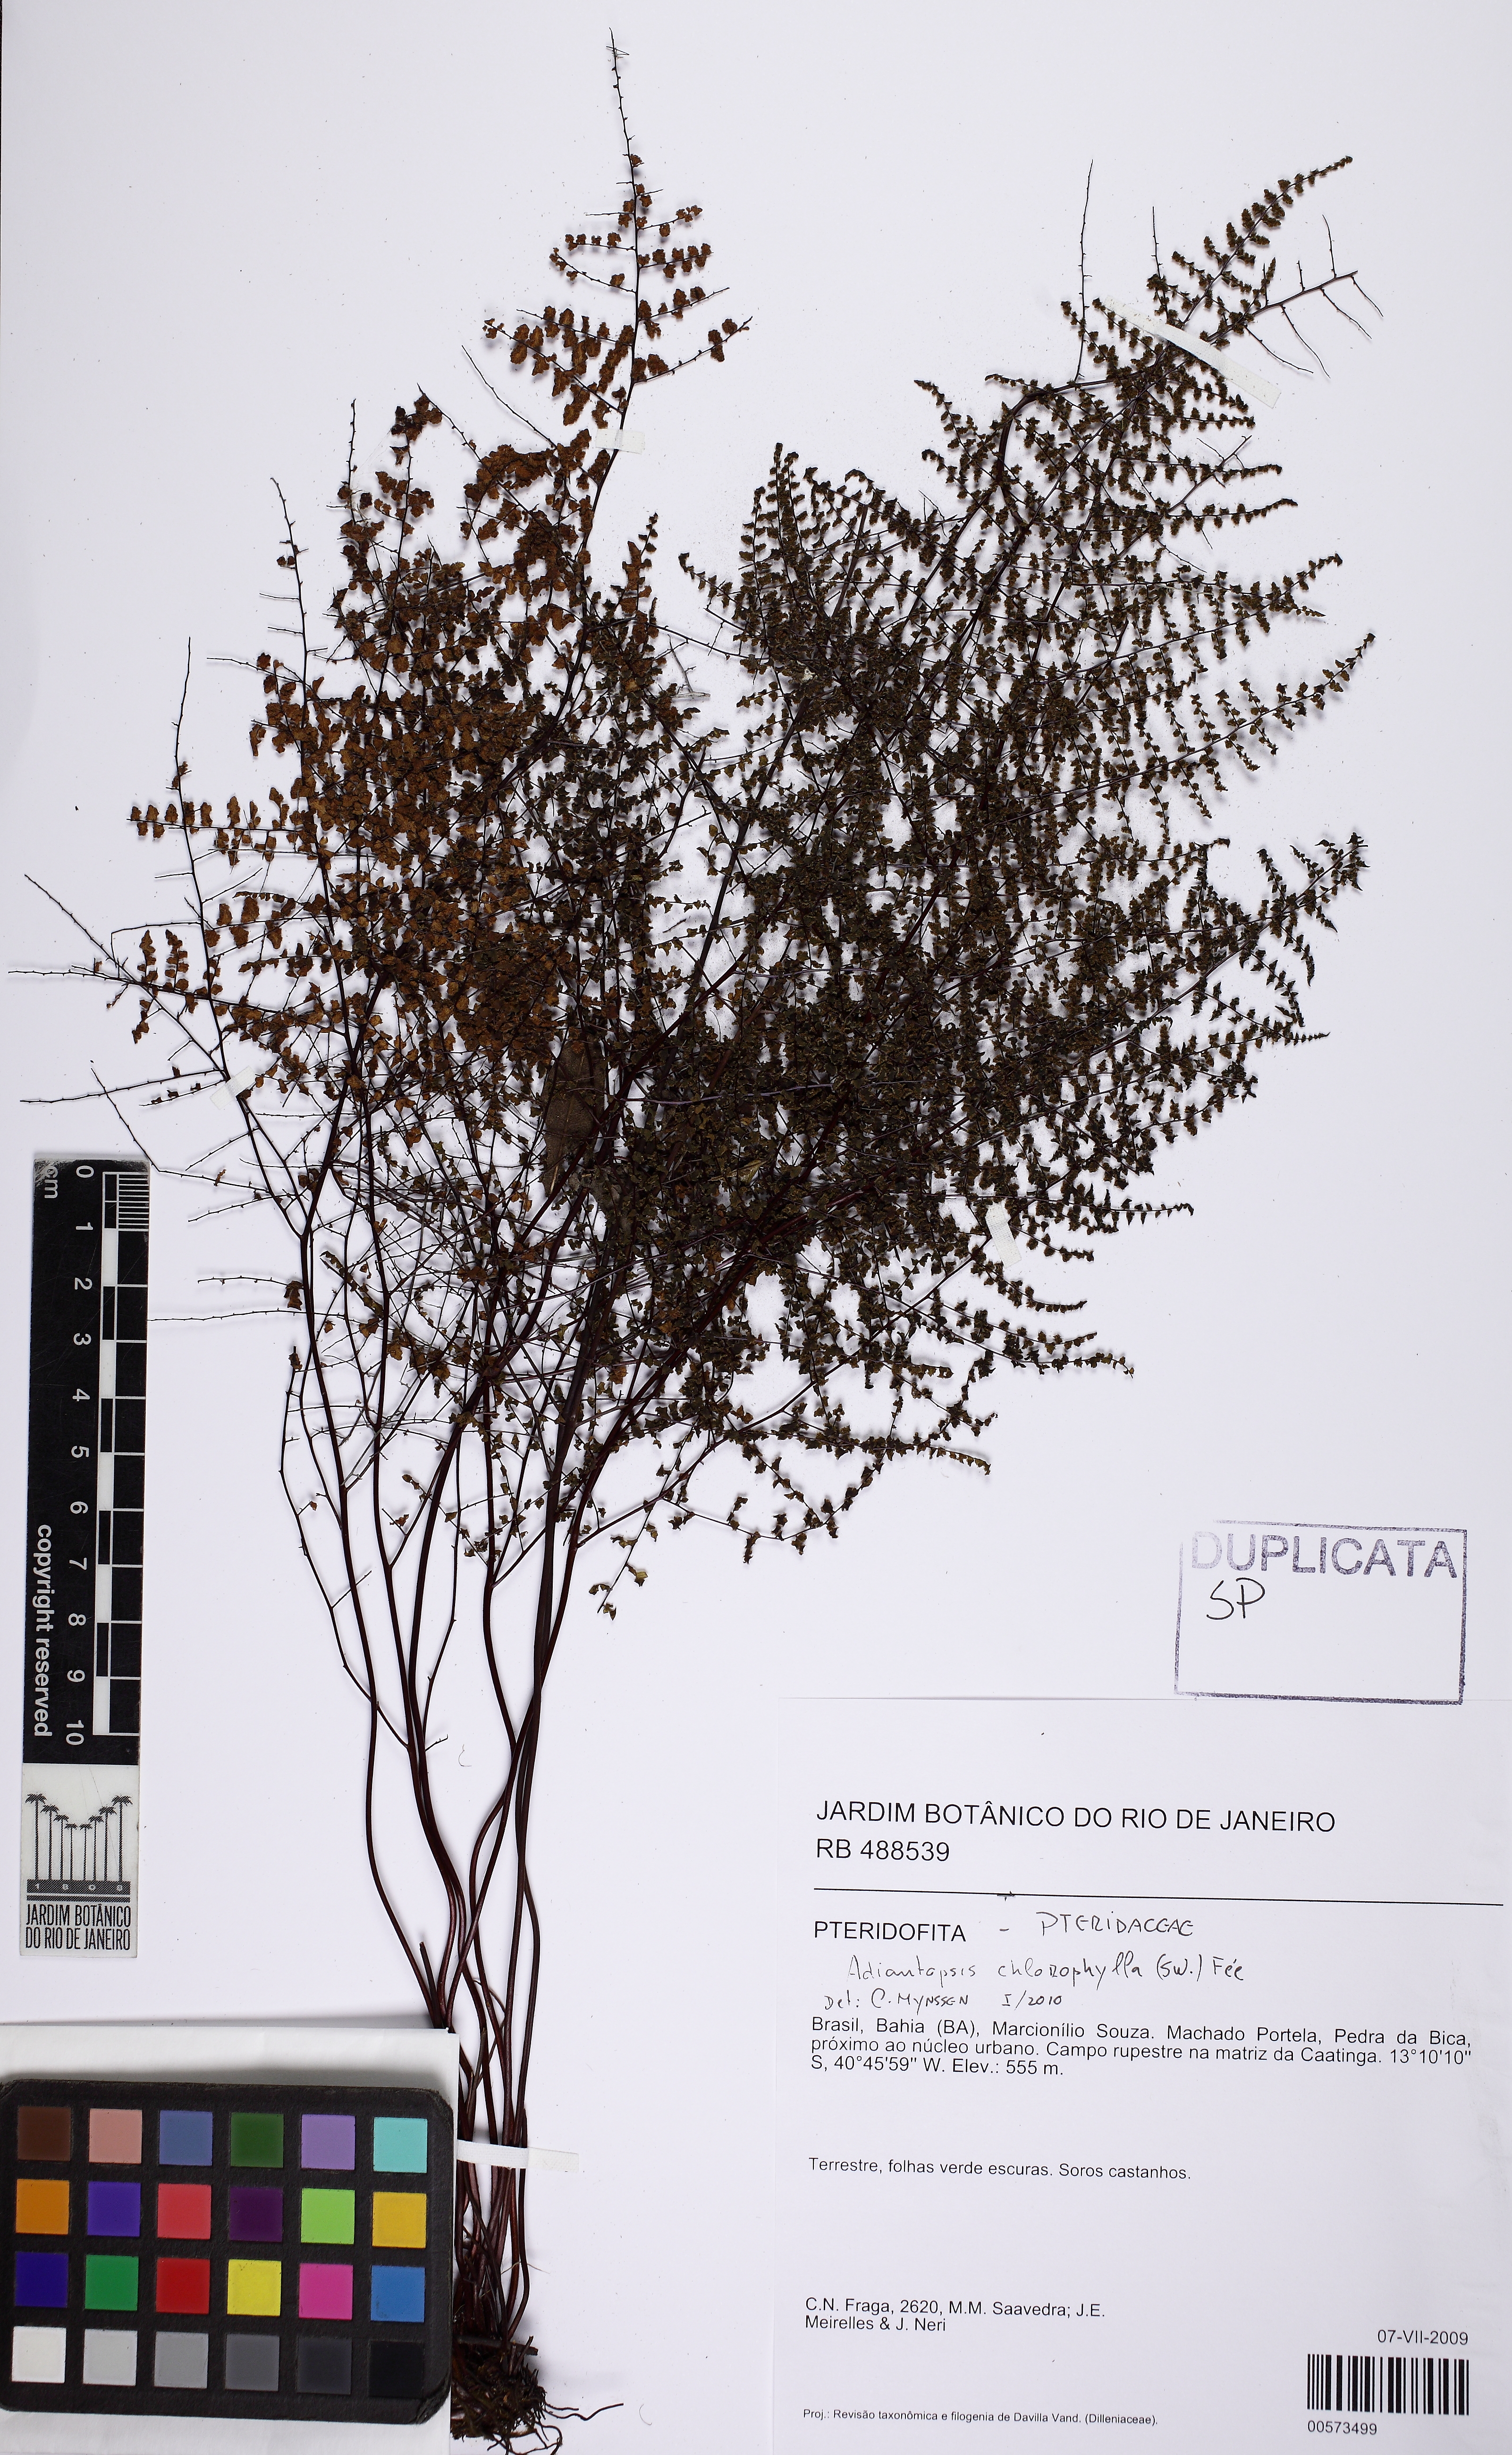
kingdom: Plantae
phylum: Tracheophyta
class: Polypodiopsida
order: Polypodiales
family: Pteridaceae
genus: Adiantopsis
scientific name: Adiantopsis chlorophylla
